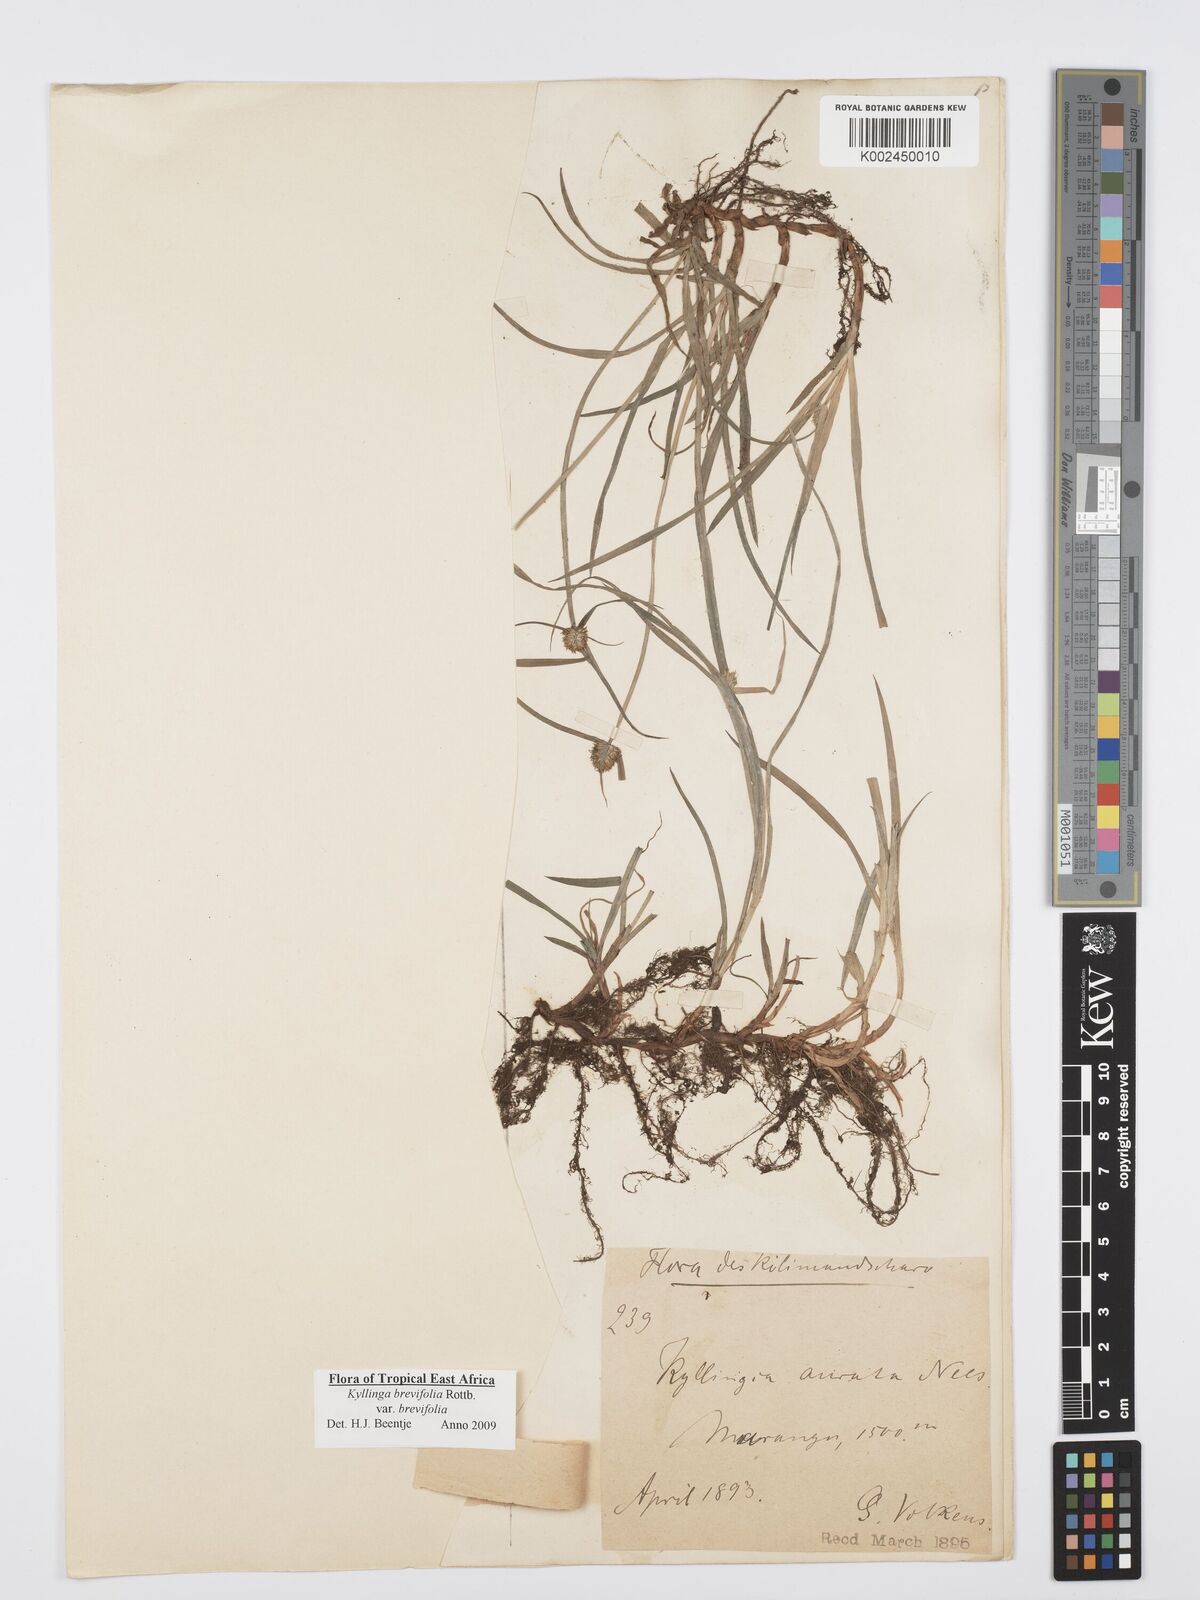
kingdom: Plantae
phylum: Tracheophyta
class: Liliopsida
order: Poales
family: Cyperaceae
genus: Cyperus
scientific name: Cyperus brevifolius
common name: Globe kyllinga
